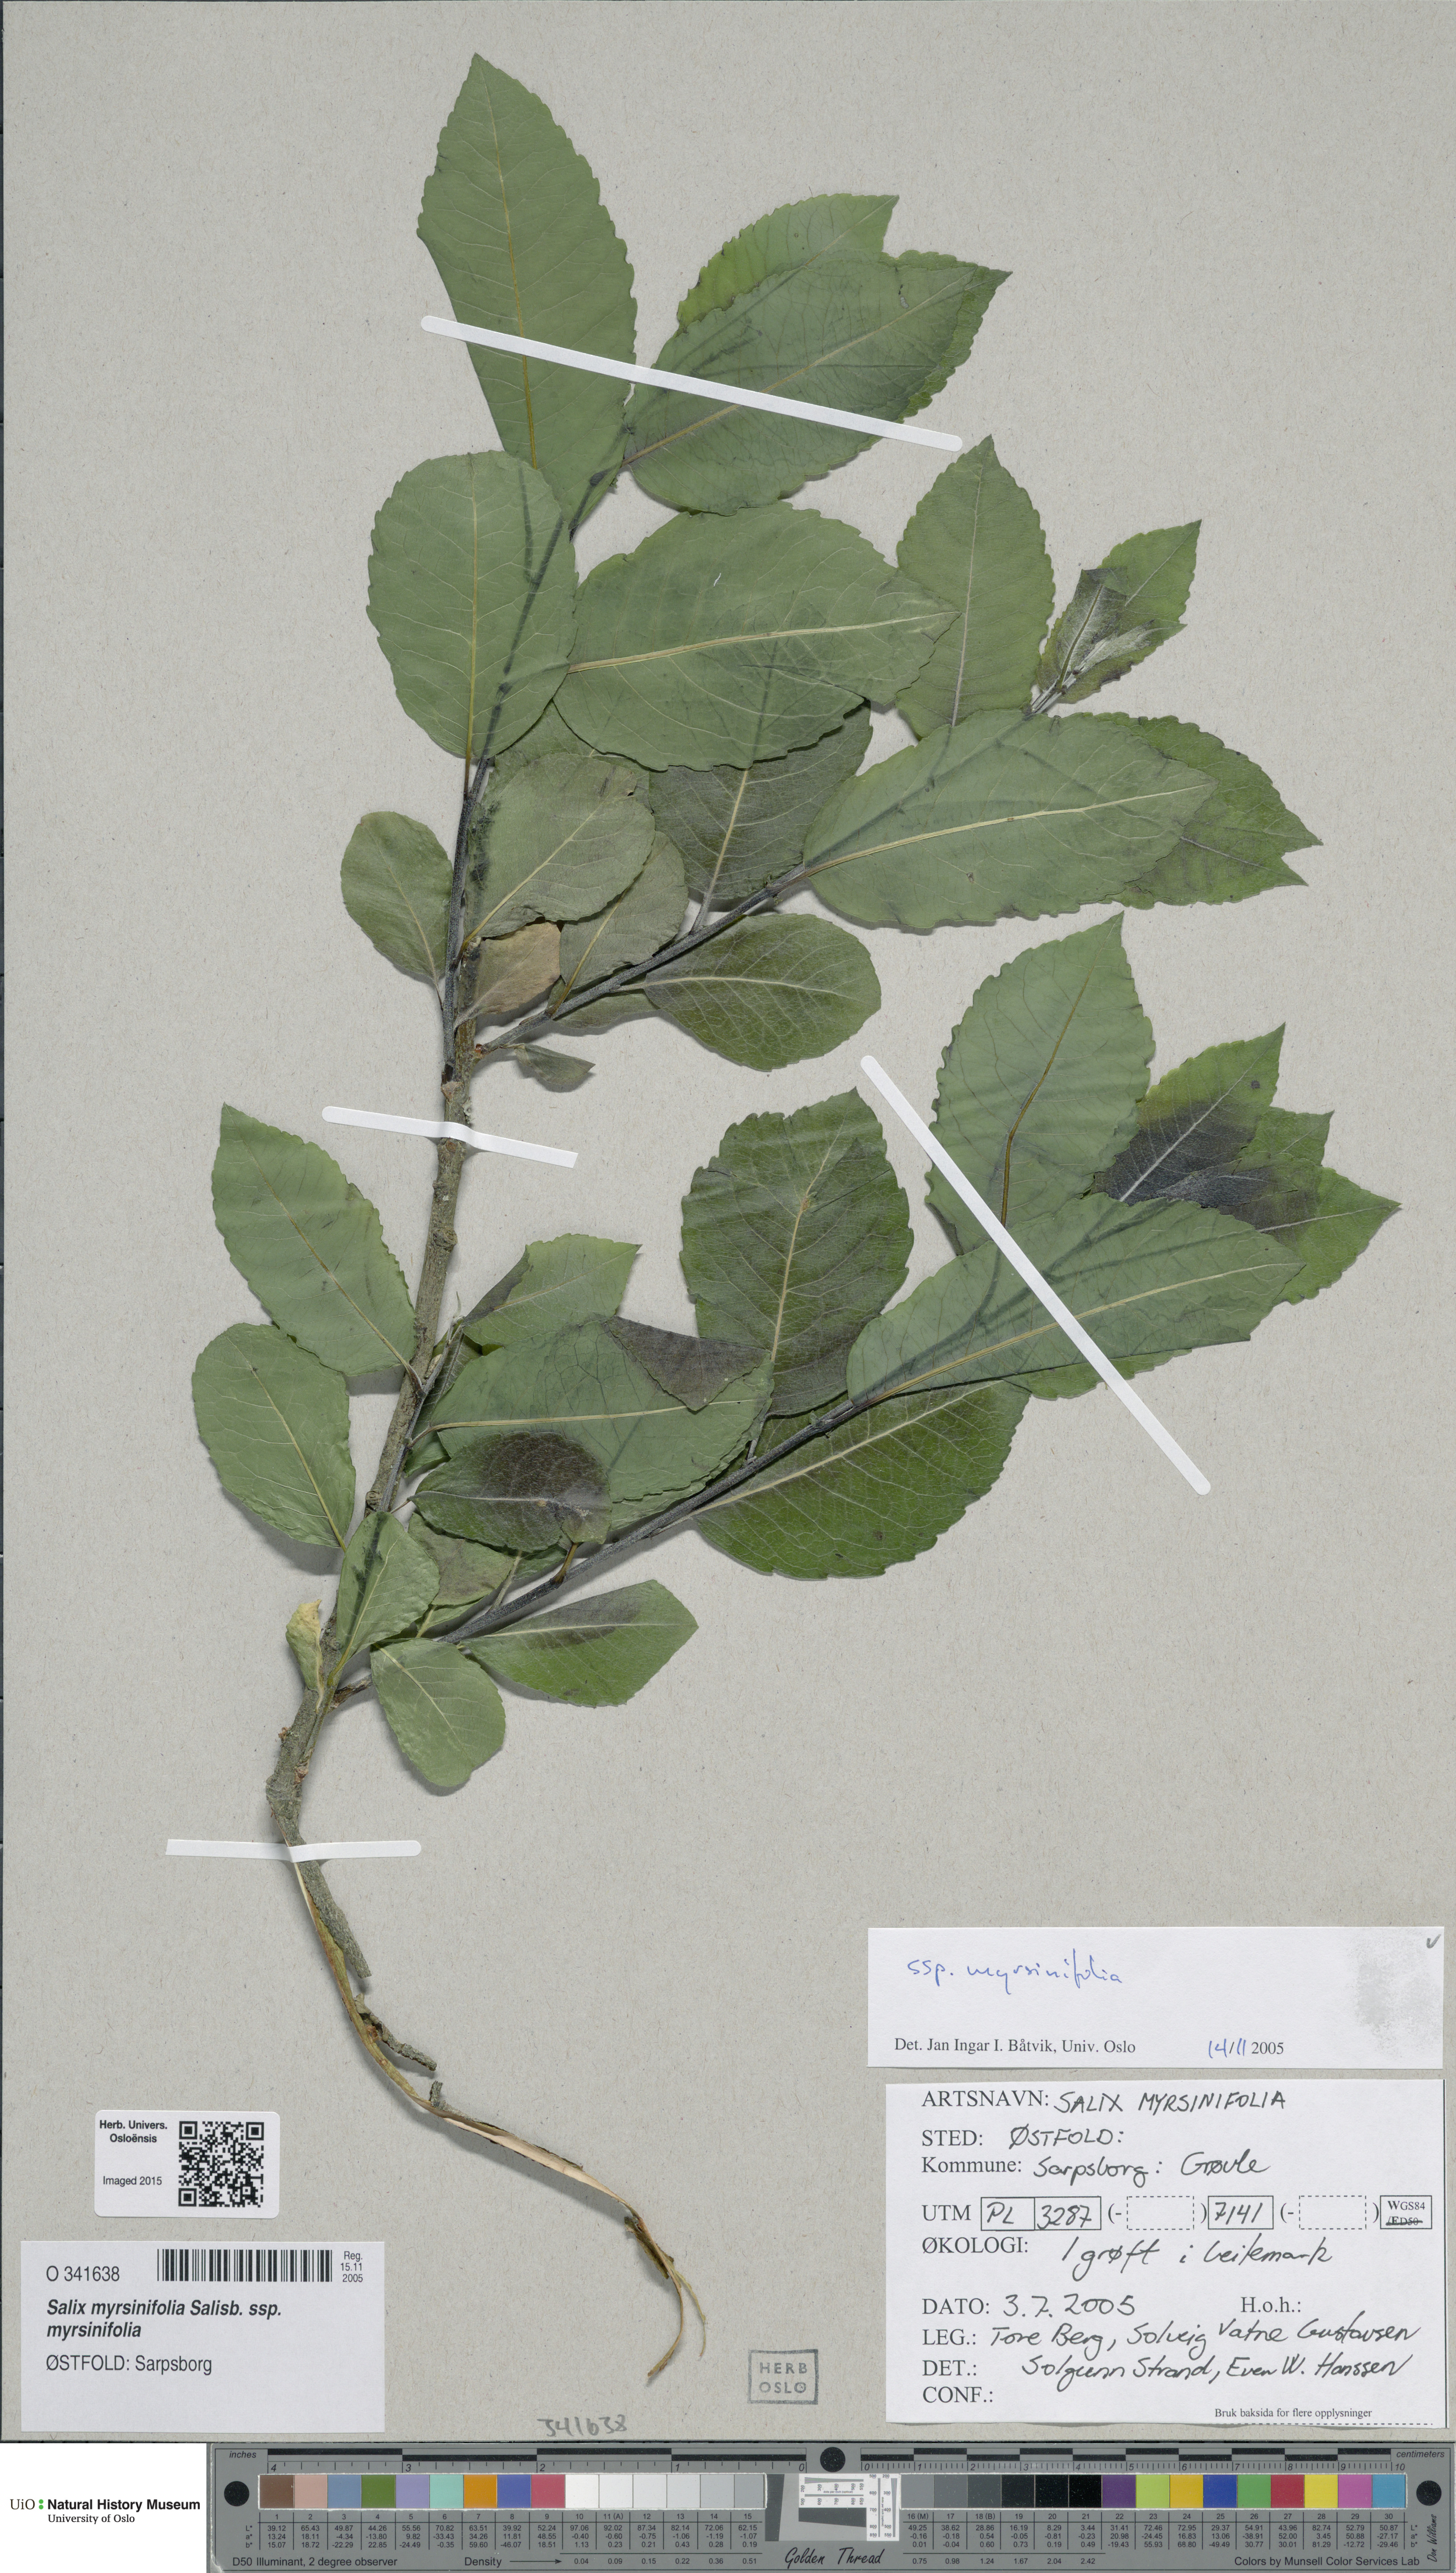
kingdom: Plantae
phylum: Tracheophyta
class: Magnoliopsida
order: Malpighiales
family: Salicaceae
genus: Salix
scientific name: Salix myrsinifolia
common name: Dark-leaved willow
